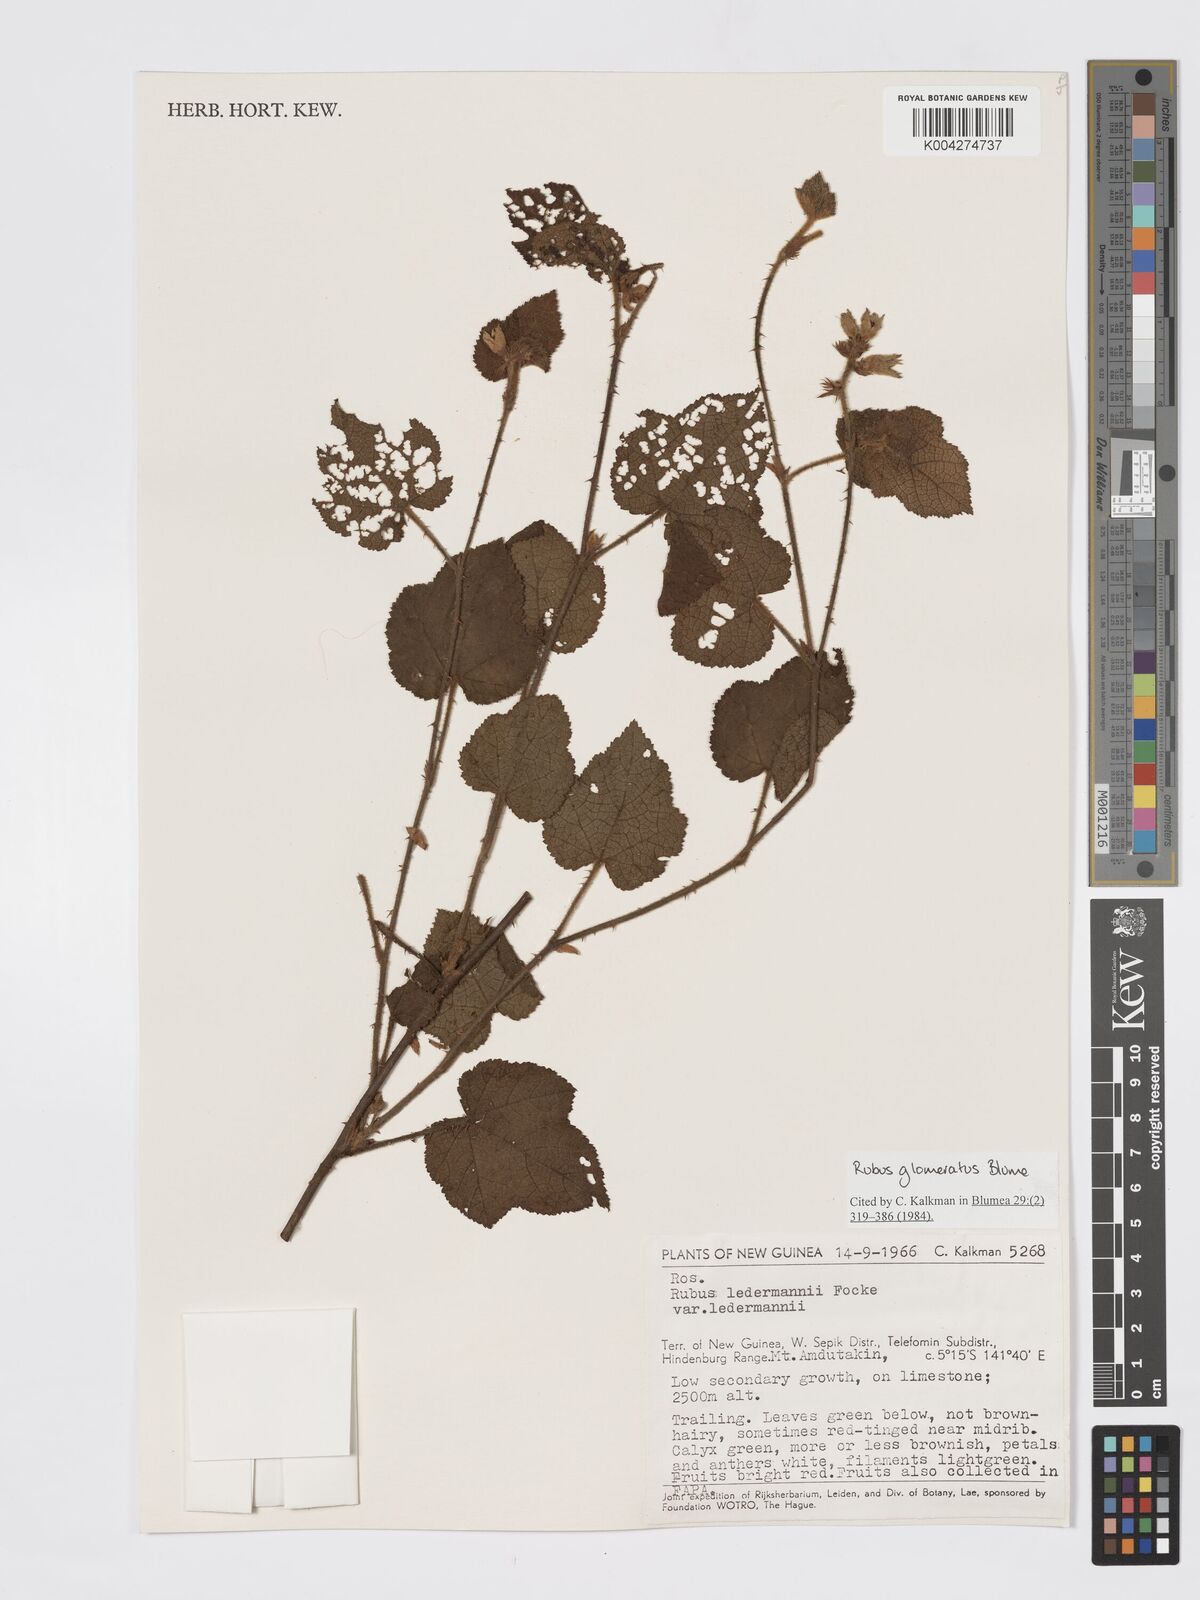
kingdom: Plantae
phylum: Tracheophyta
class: Magnoliopsida
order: Rosales
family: Rosaceae
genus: Rubus
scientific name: Rubus
